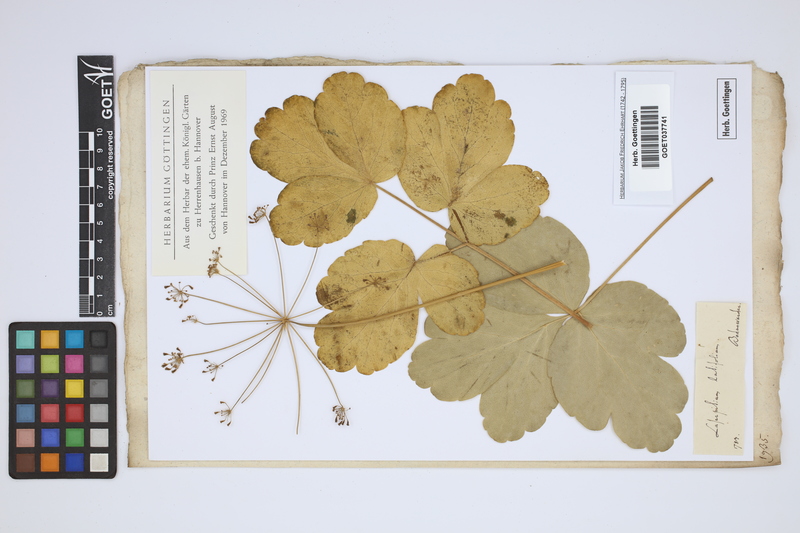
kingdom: Plantae
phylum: Tracheophyta
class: Magnoliopsida
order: Apiales
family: Apiaceae
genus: Laserpitium
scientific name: Laserpitium latifolium
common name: Broadleaf sermountain
